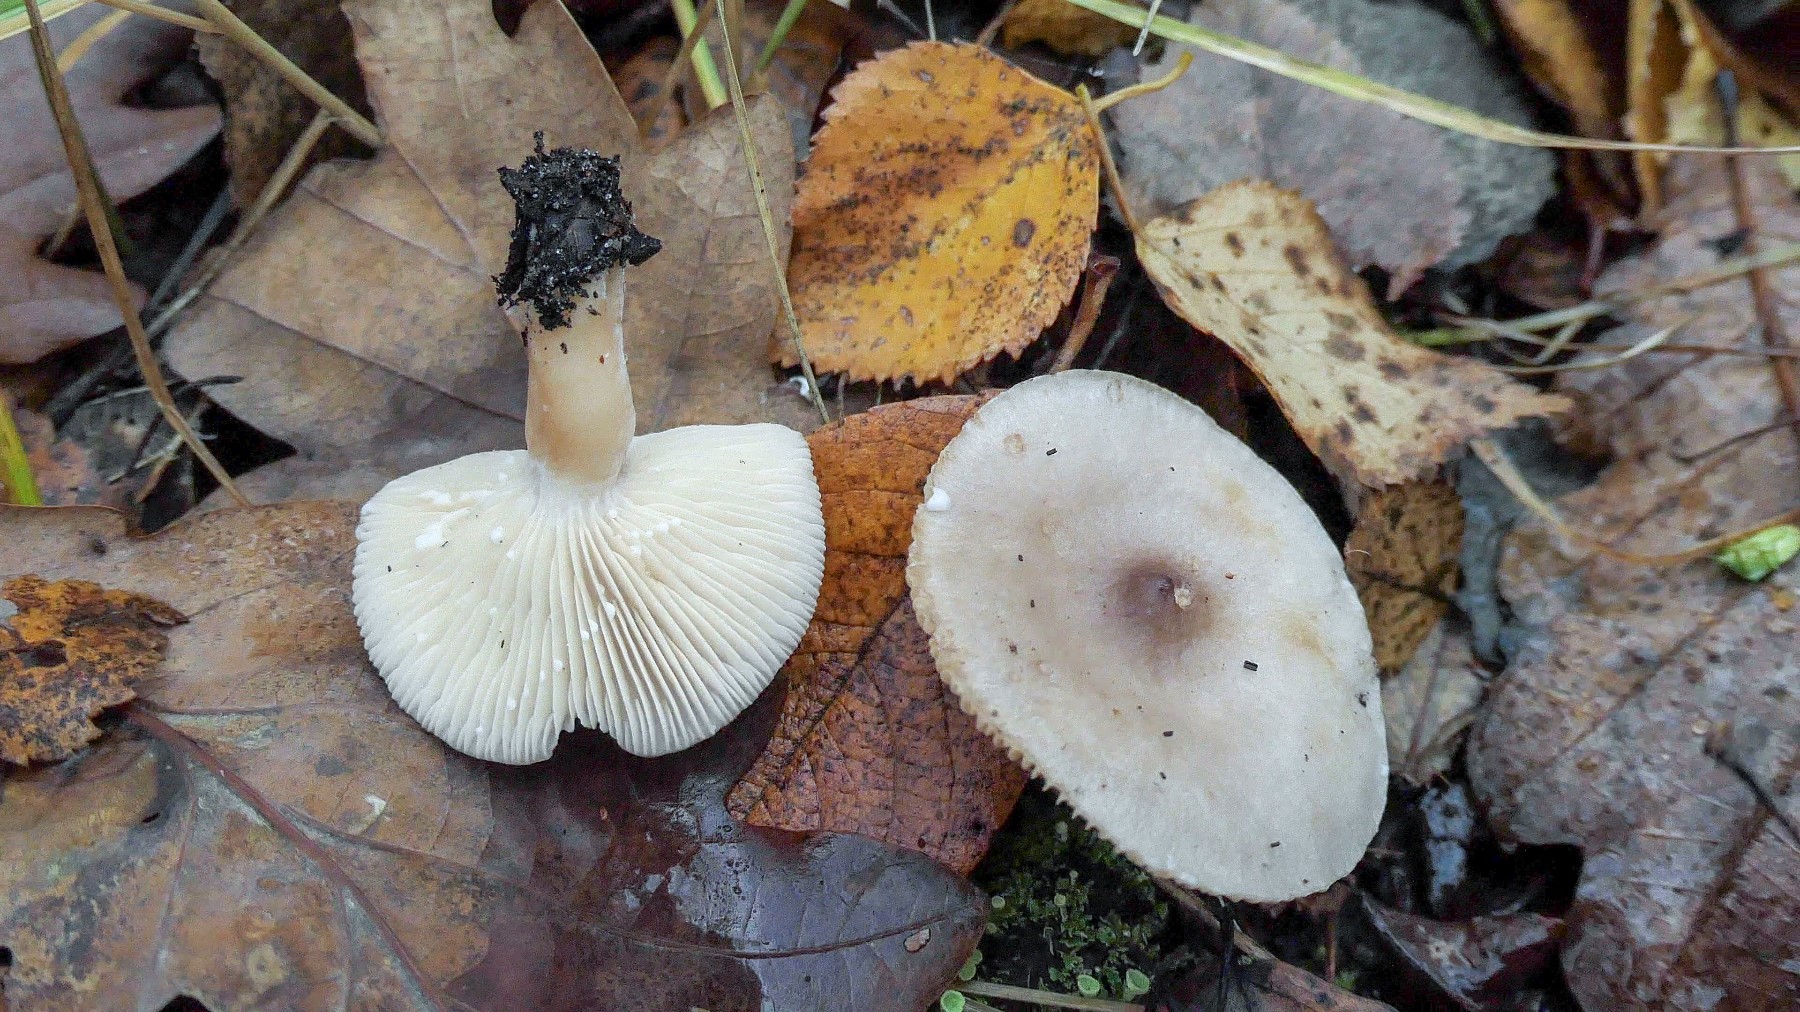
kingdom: Fungi
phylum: Basidiomycota
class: Agaricomycetes
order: Russulales
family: Russulaceae
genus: Lactarius
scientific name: Lactarius vietus
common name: violetgrå mælkehat
